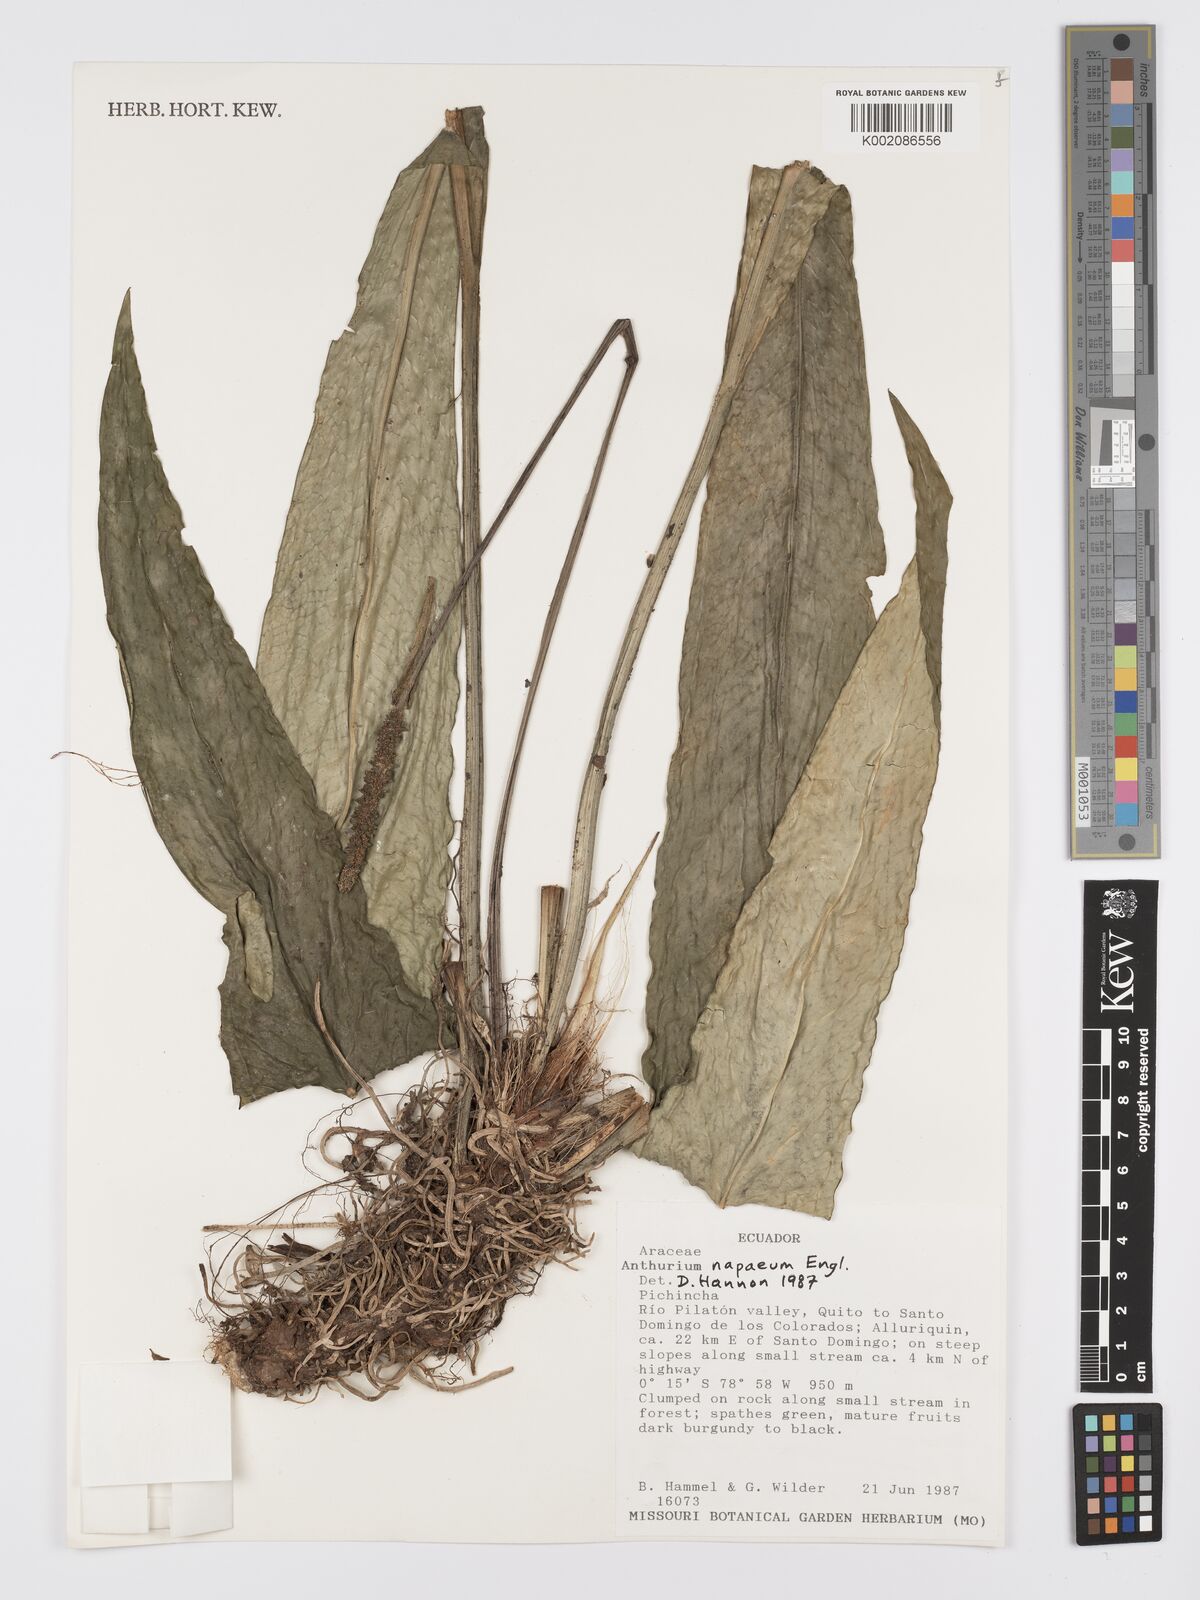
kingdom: Plantae
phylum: Tracheophyta
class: Liliopsida
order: Alismatales
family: Araceae
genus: Anthurium
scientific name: Anthurium napaeum
